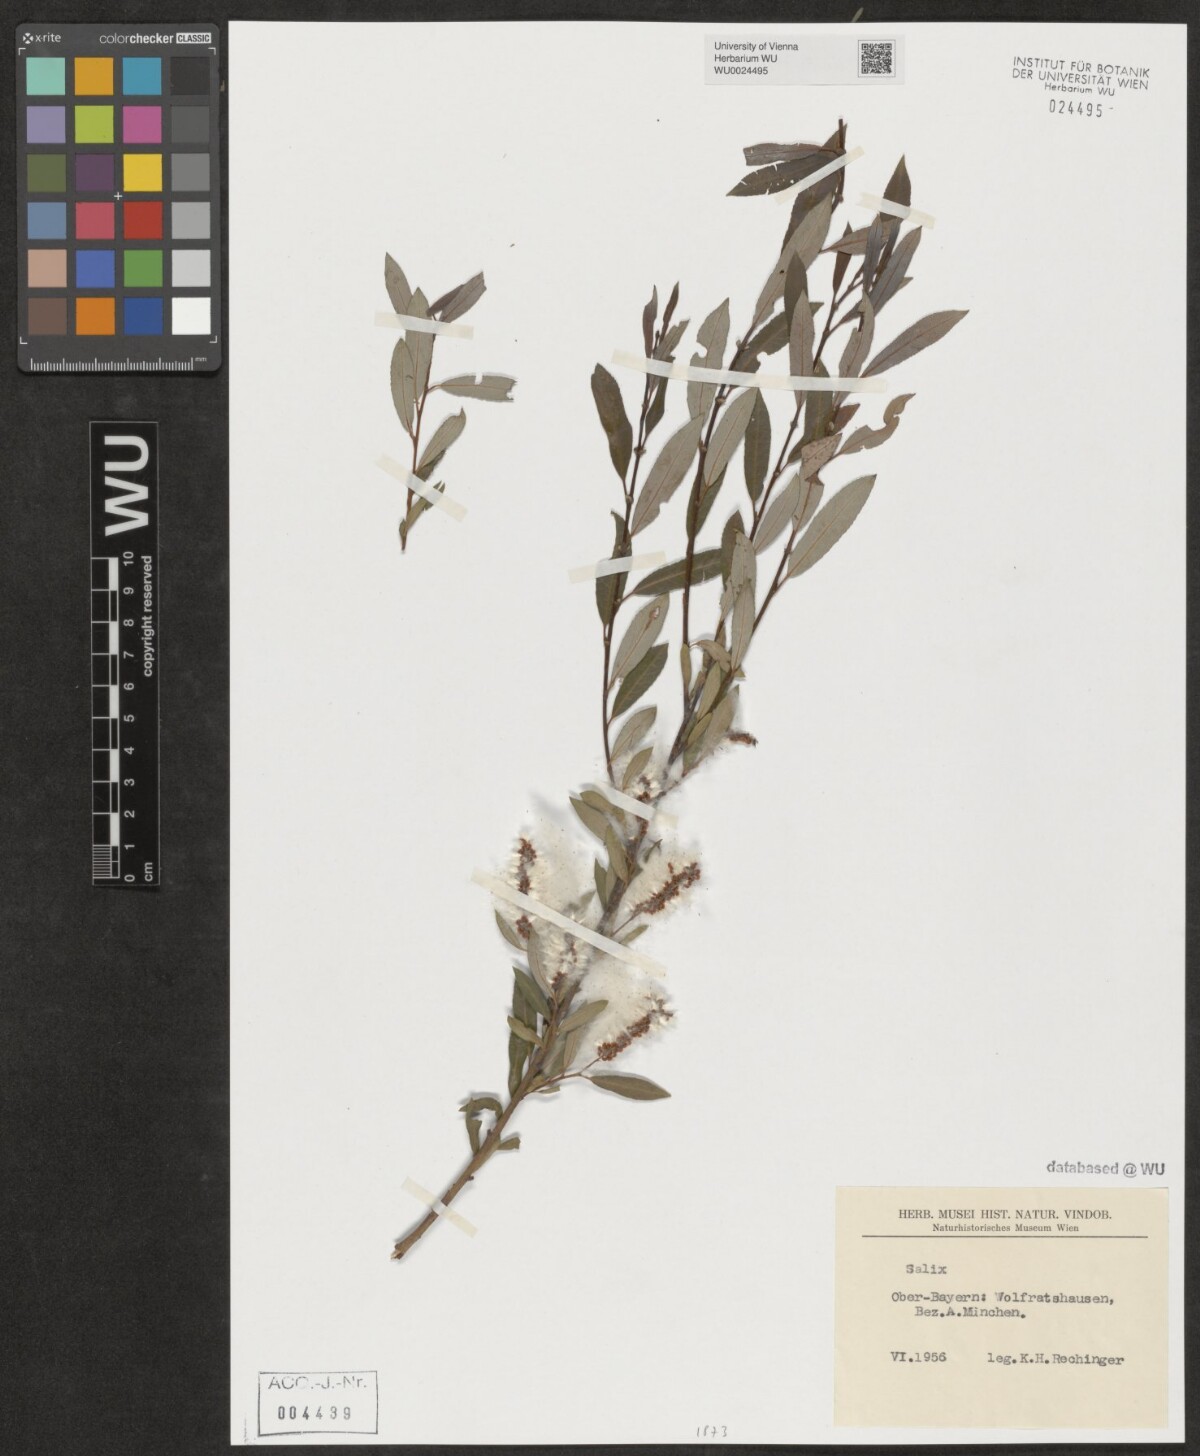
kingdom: Plantae
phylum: Tracheophyta
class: Magnoliopsida
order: Malpighiales
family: Salicaceae
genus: Salix
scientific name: Salix
